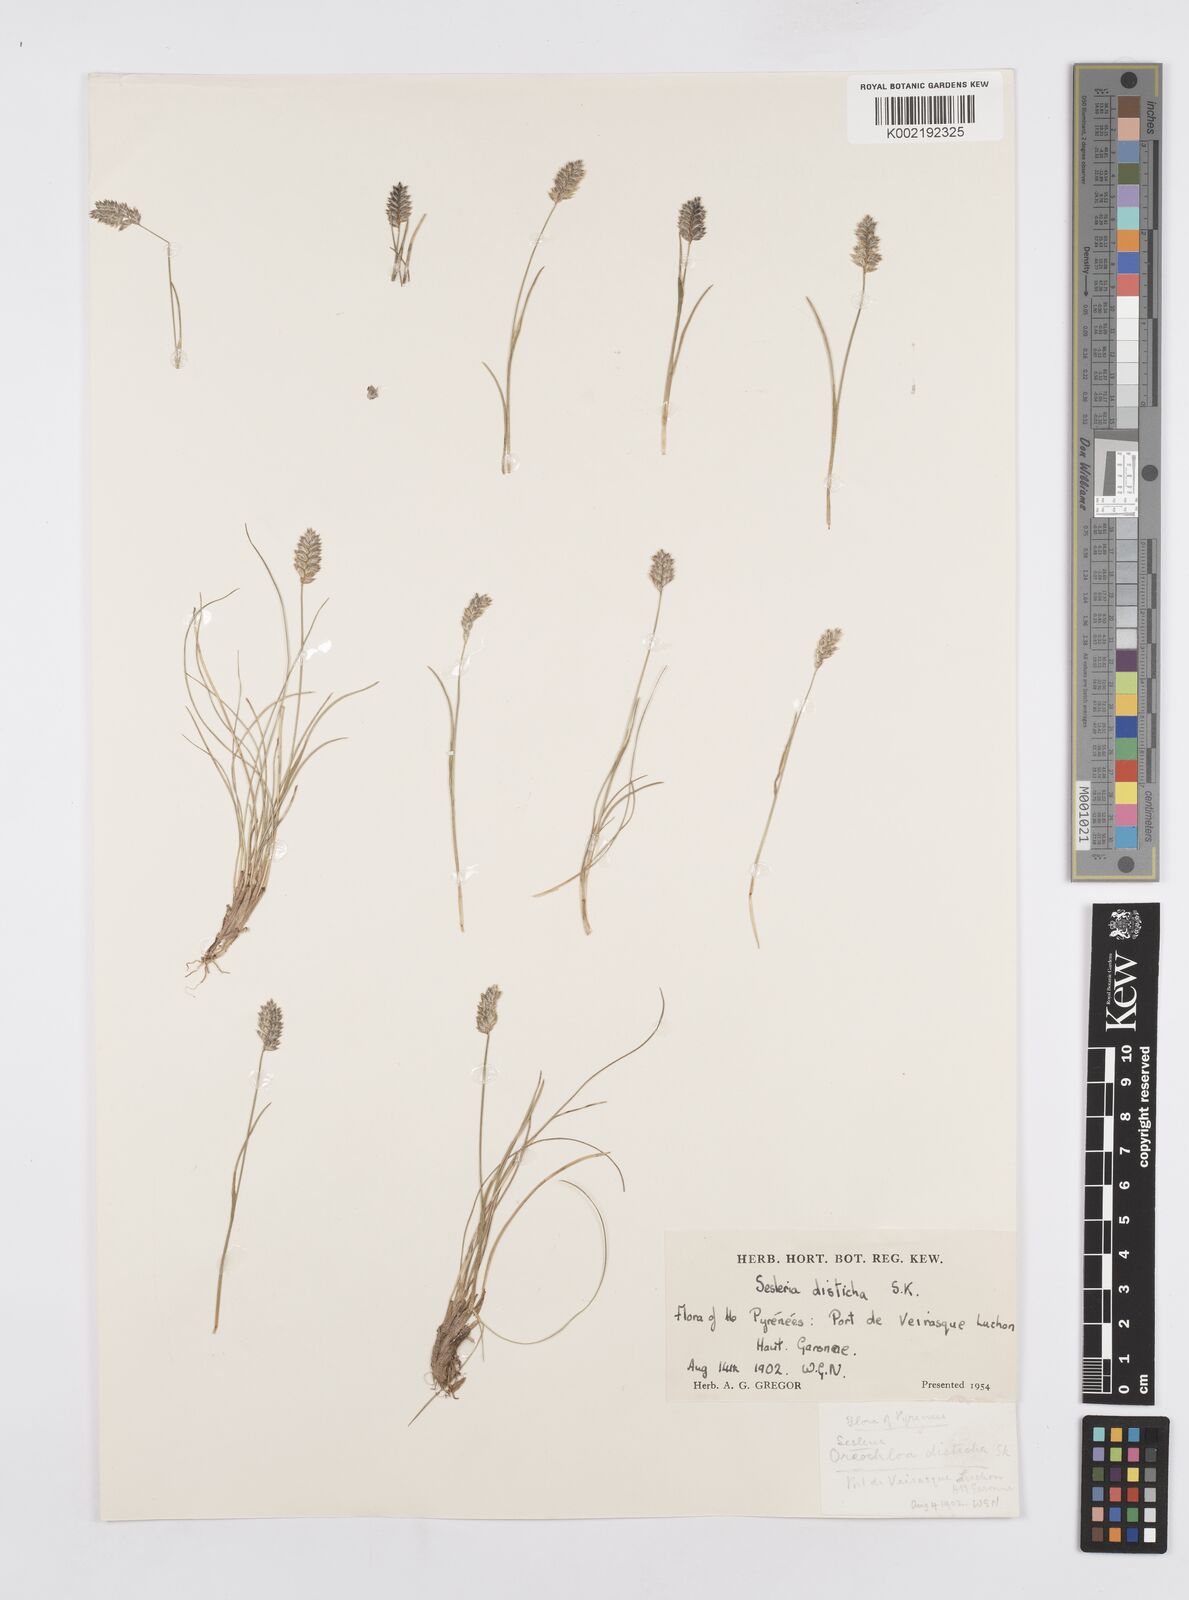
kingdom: Plantae
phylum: Tracheophyta
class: Liliopsida
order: Poales
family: Poaceae
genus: Oreochloa
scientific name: Oreochloa disticha
